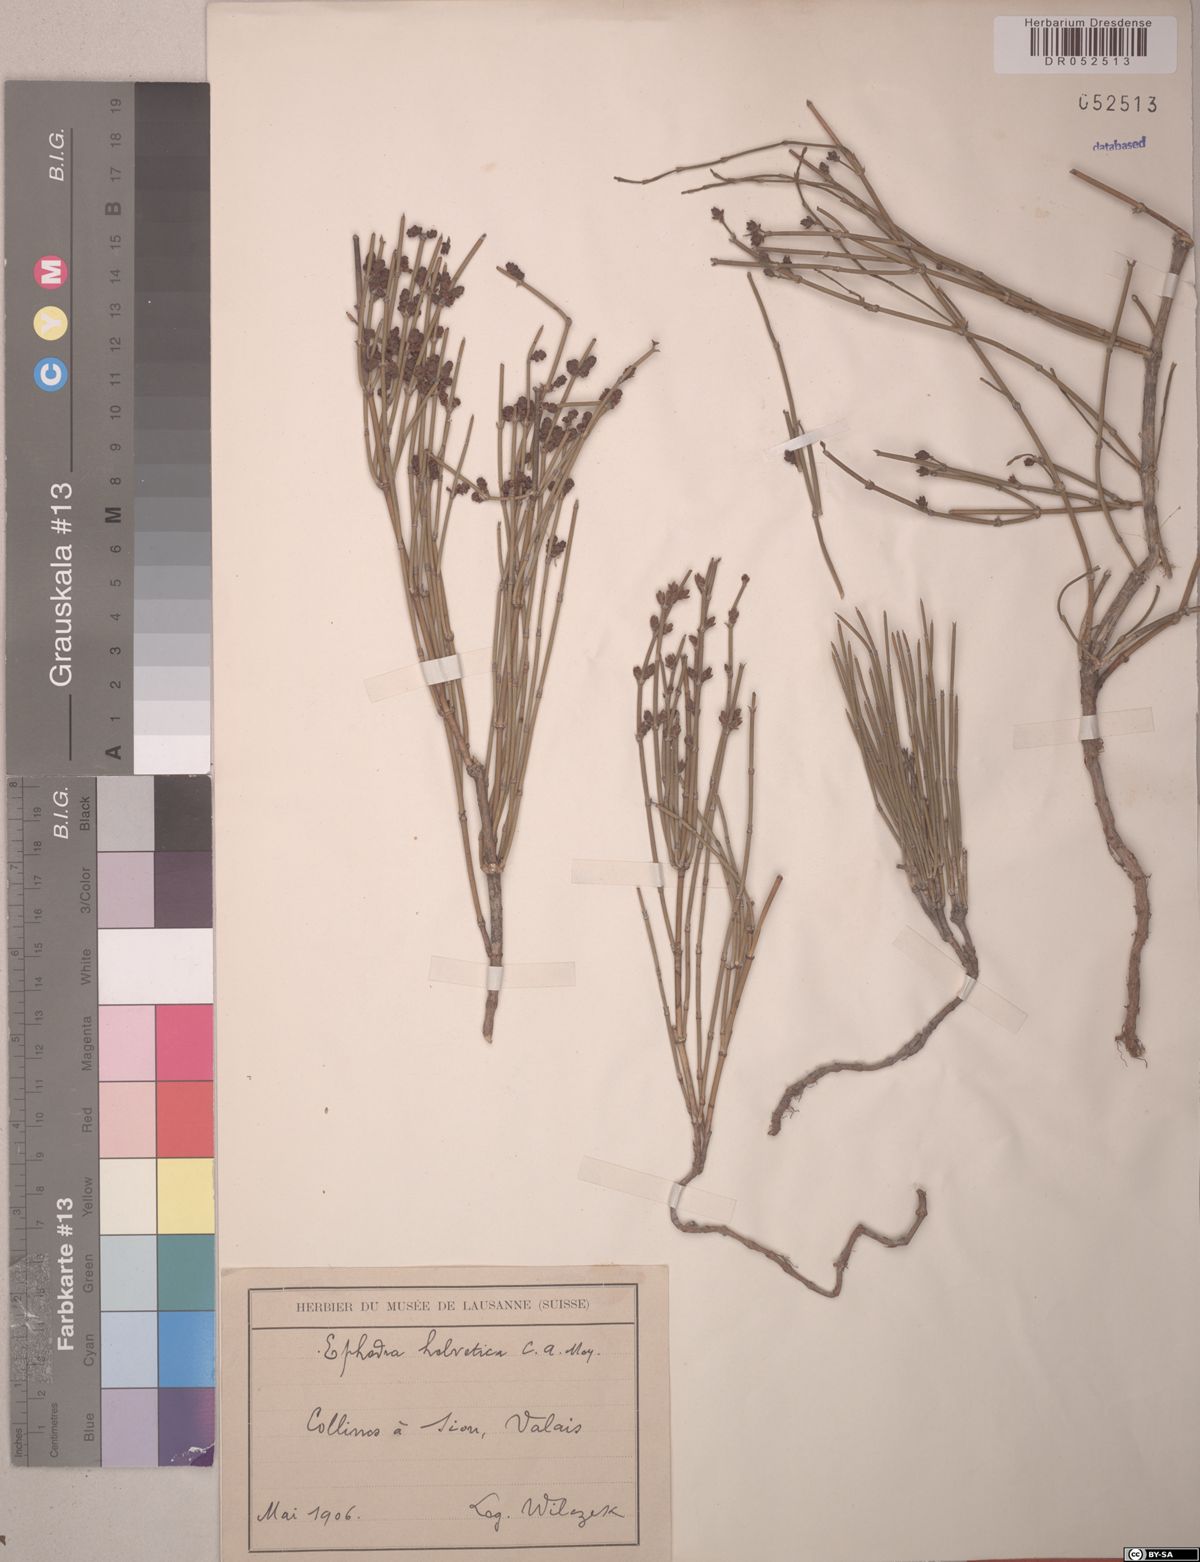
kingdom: Plantae
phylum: Tracheophyta
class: Gnetopsida
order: Ephedrales
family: Ephedraceae
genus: Ephedra
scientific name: Ephedra distachya
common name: Sea grape
